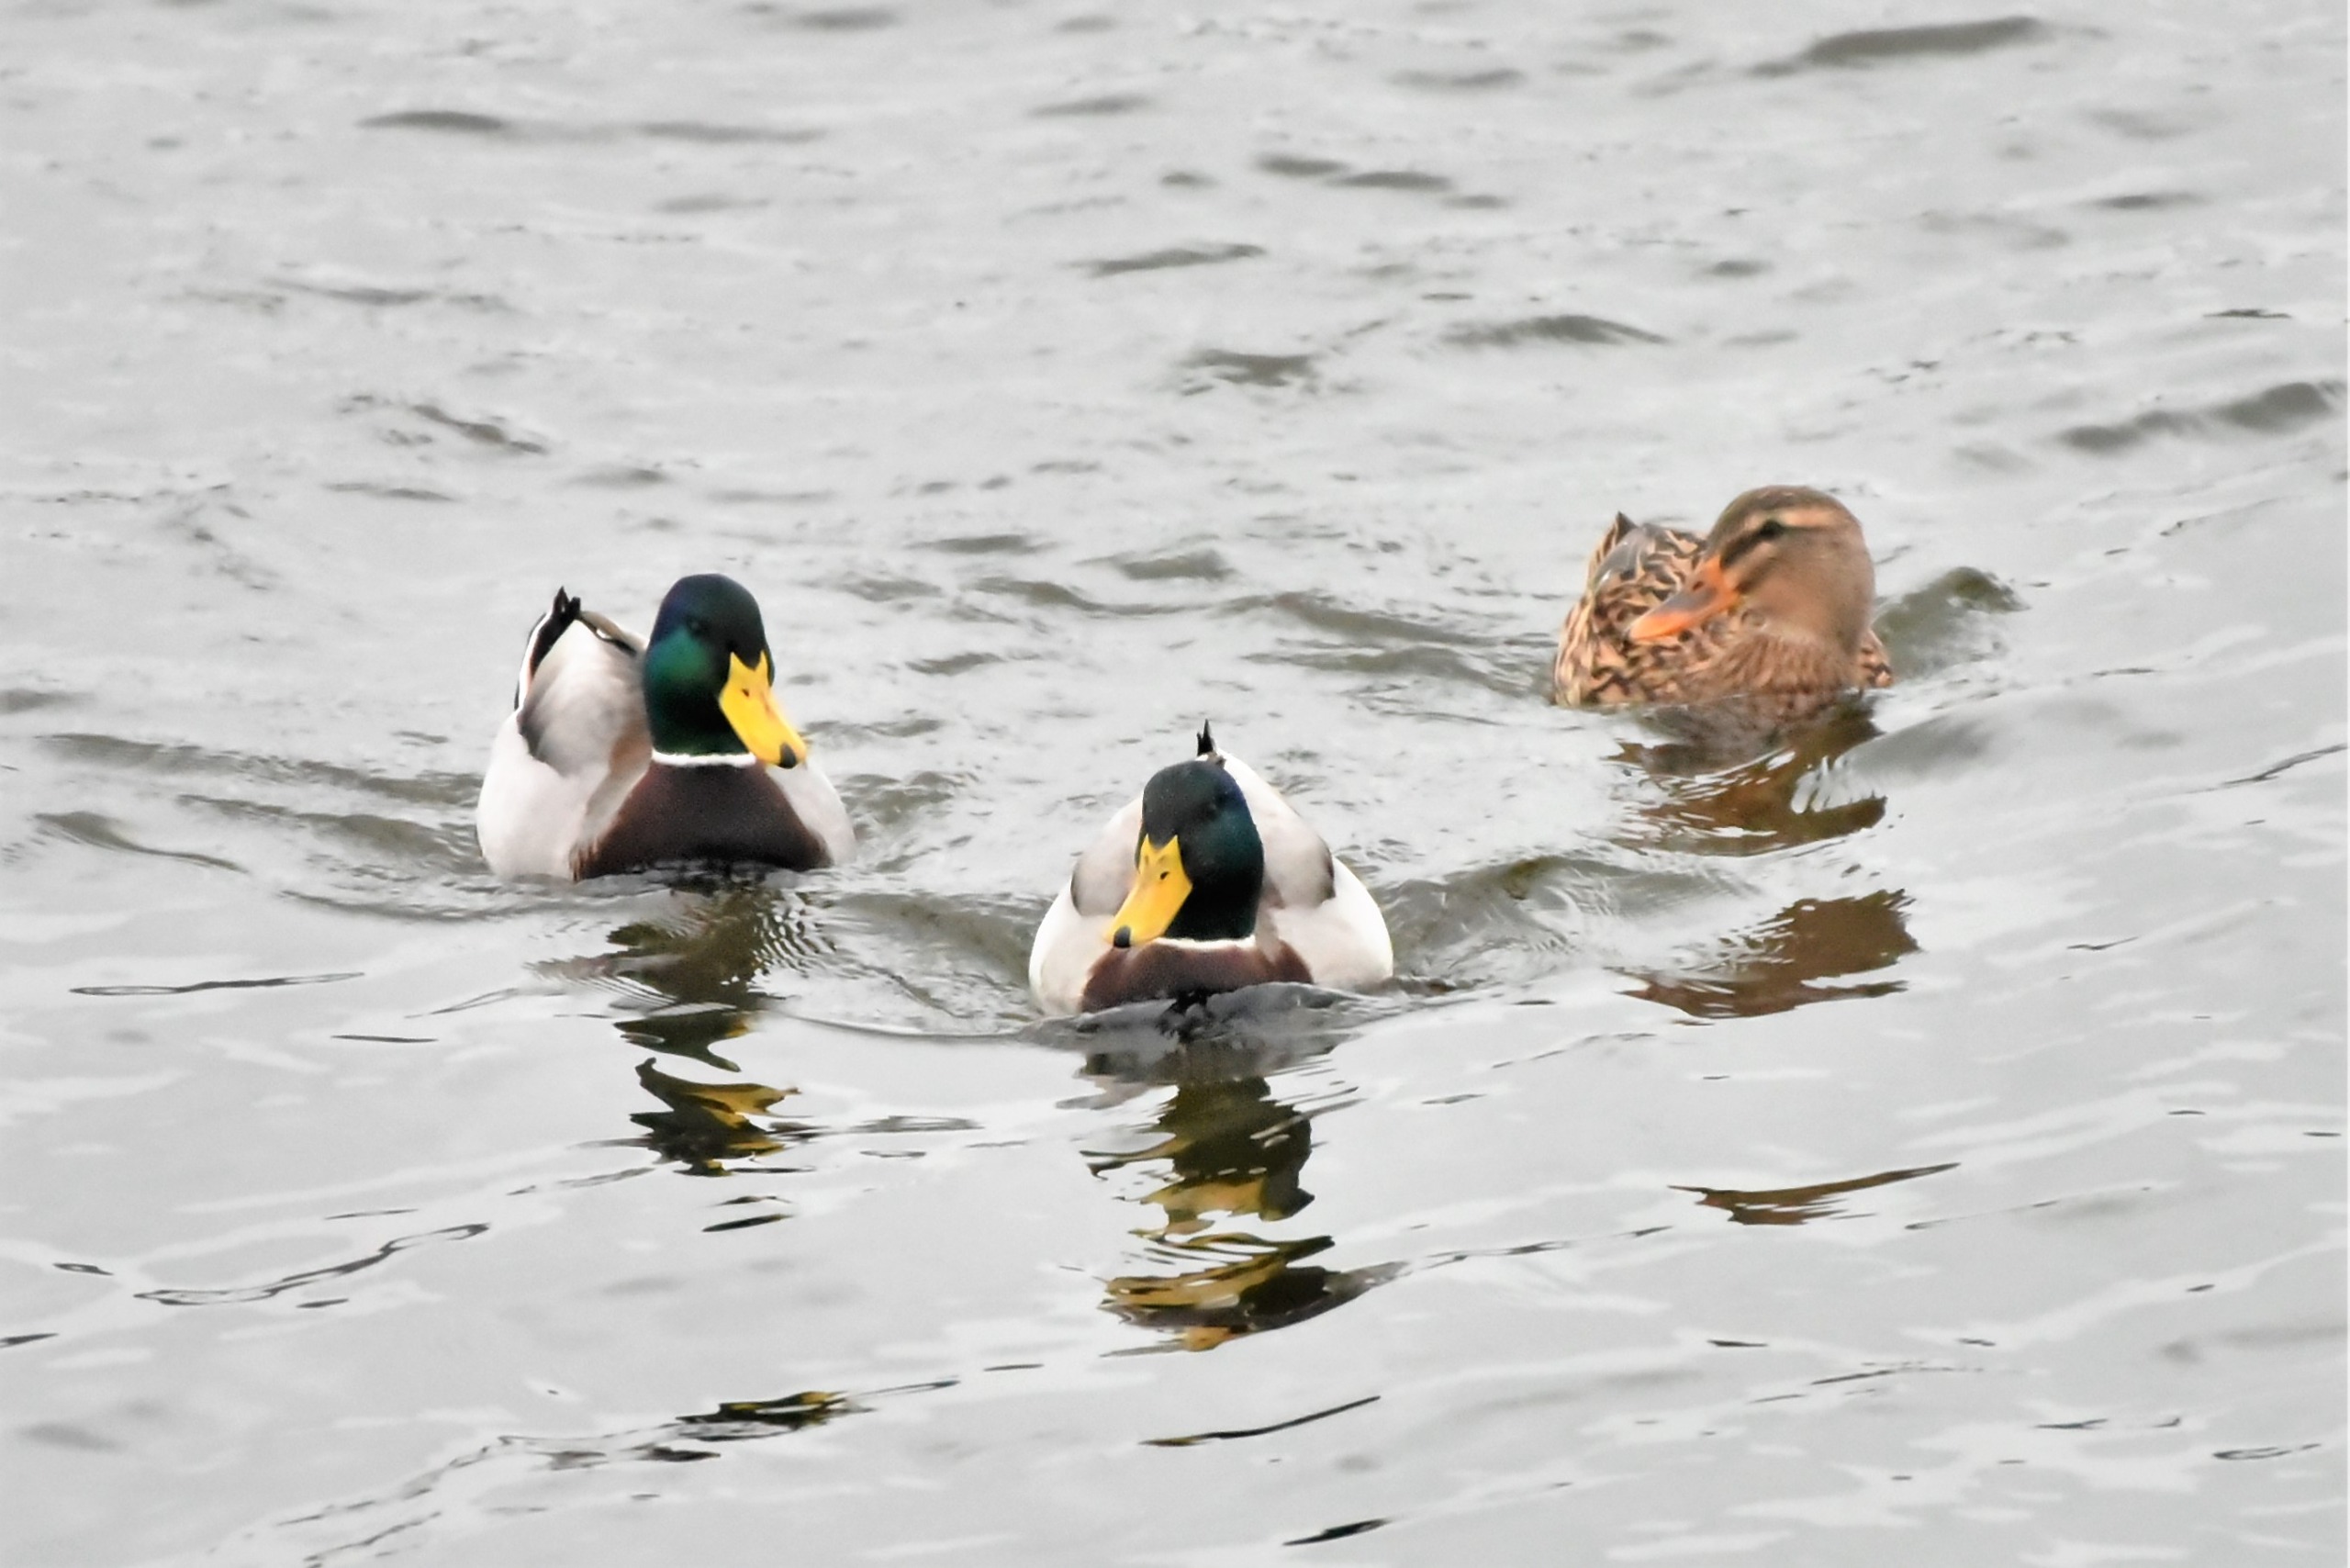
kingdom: Animalia
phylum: Chordata
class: Aves
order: Anseriformes
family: Anatidae
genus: Anas
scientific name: Anas platyrhynchos
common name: Gråand
